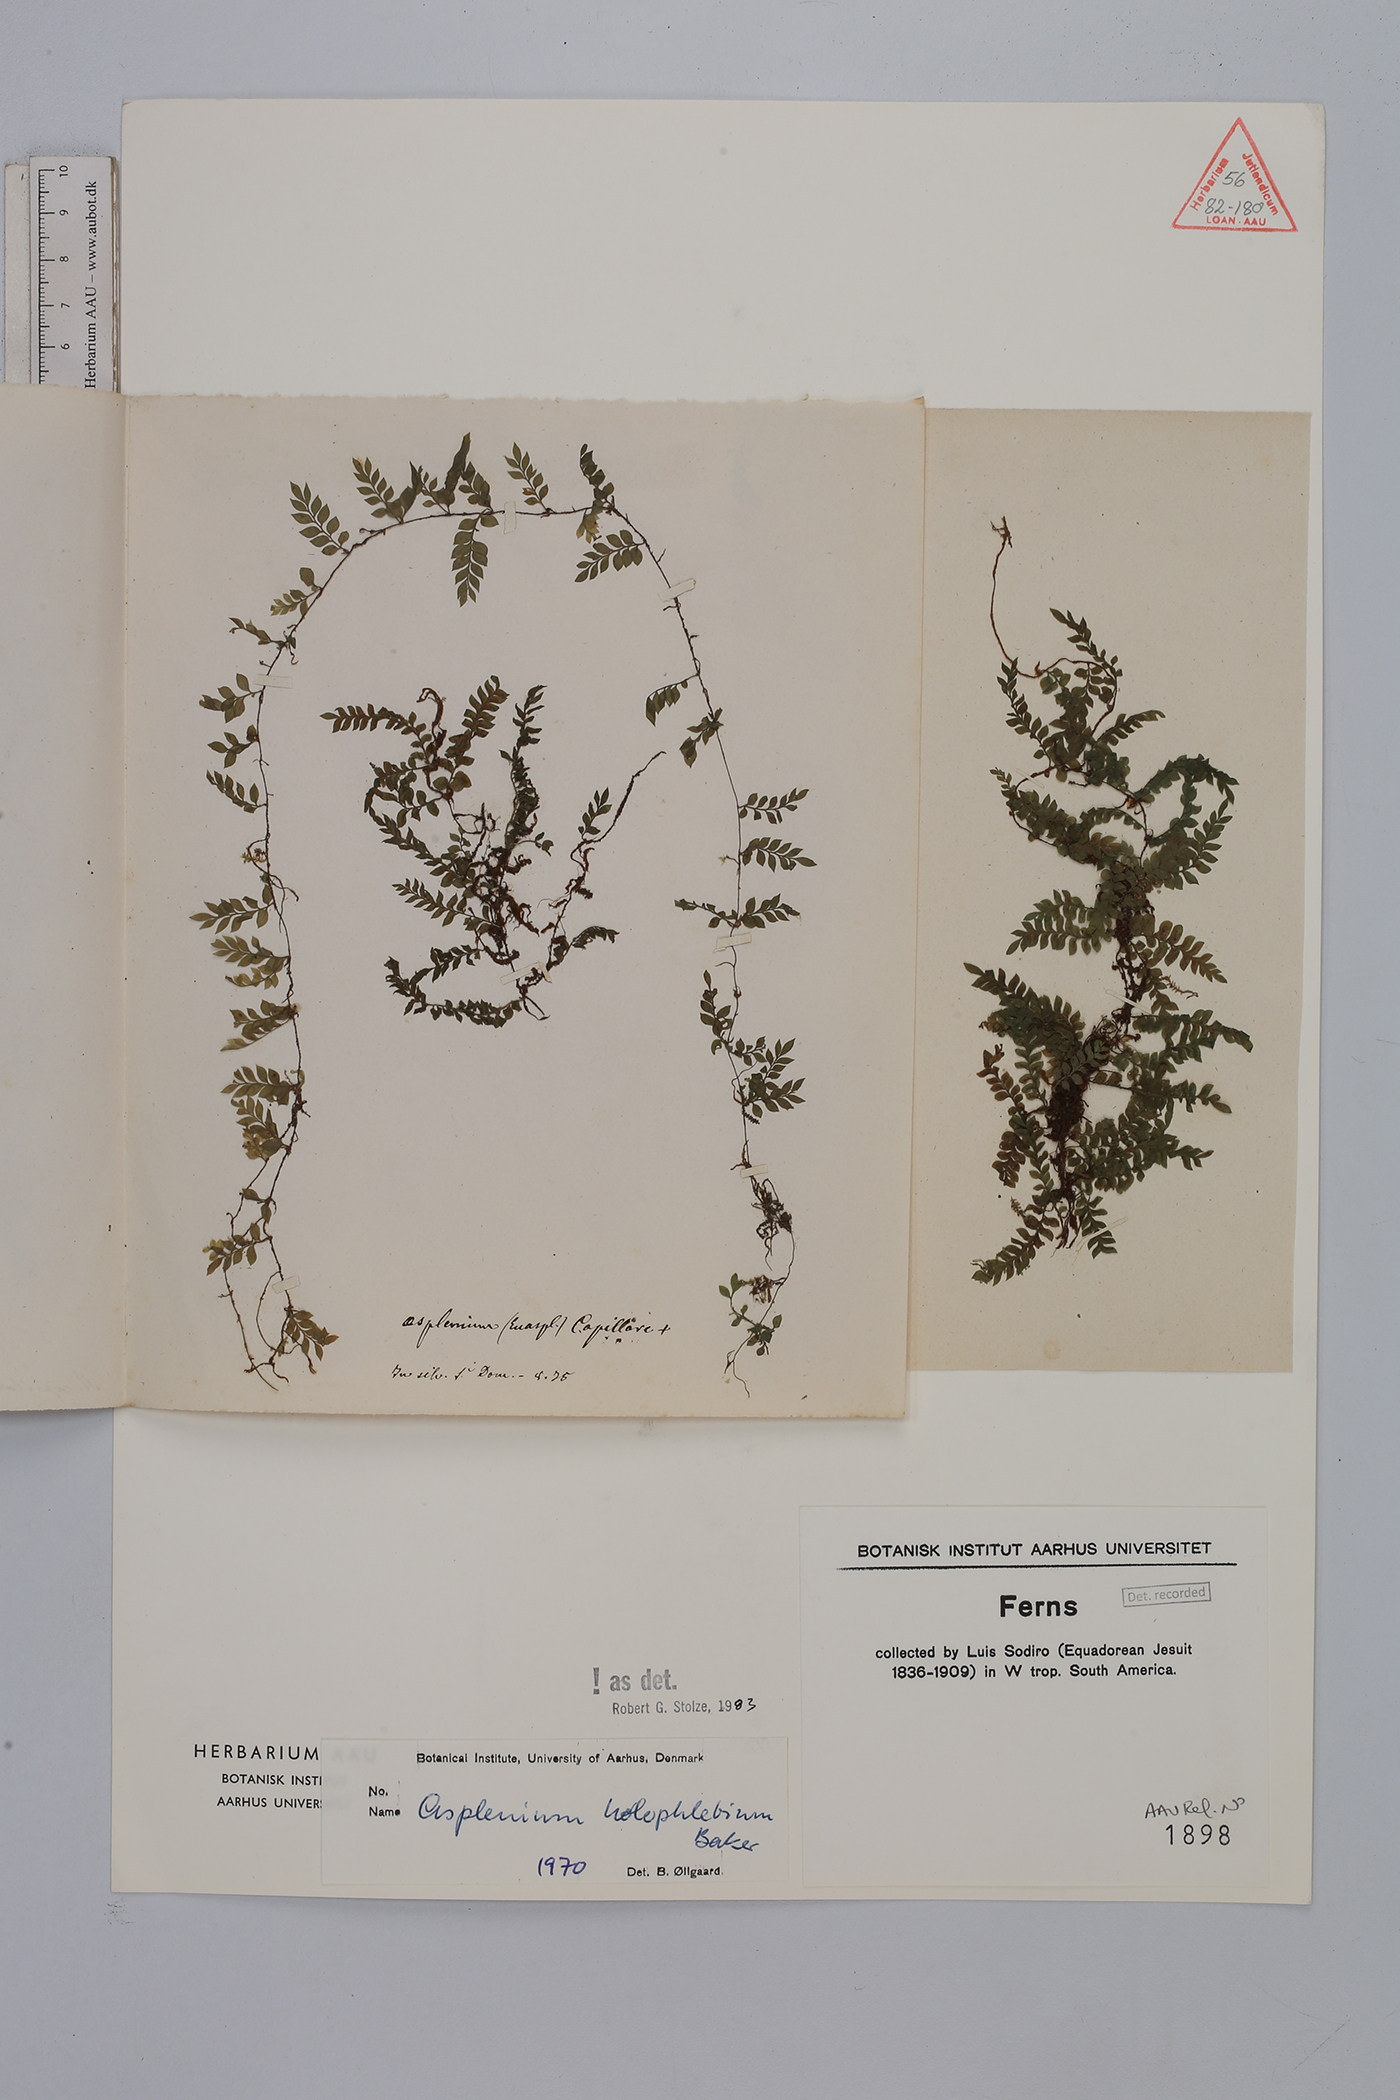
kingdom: Plantae
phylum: Tracheophyta
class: Polypodiopsida
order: Polypodiales
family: Aspleniaceae
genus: Asplenium
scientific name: Asplenium holophlebium
